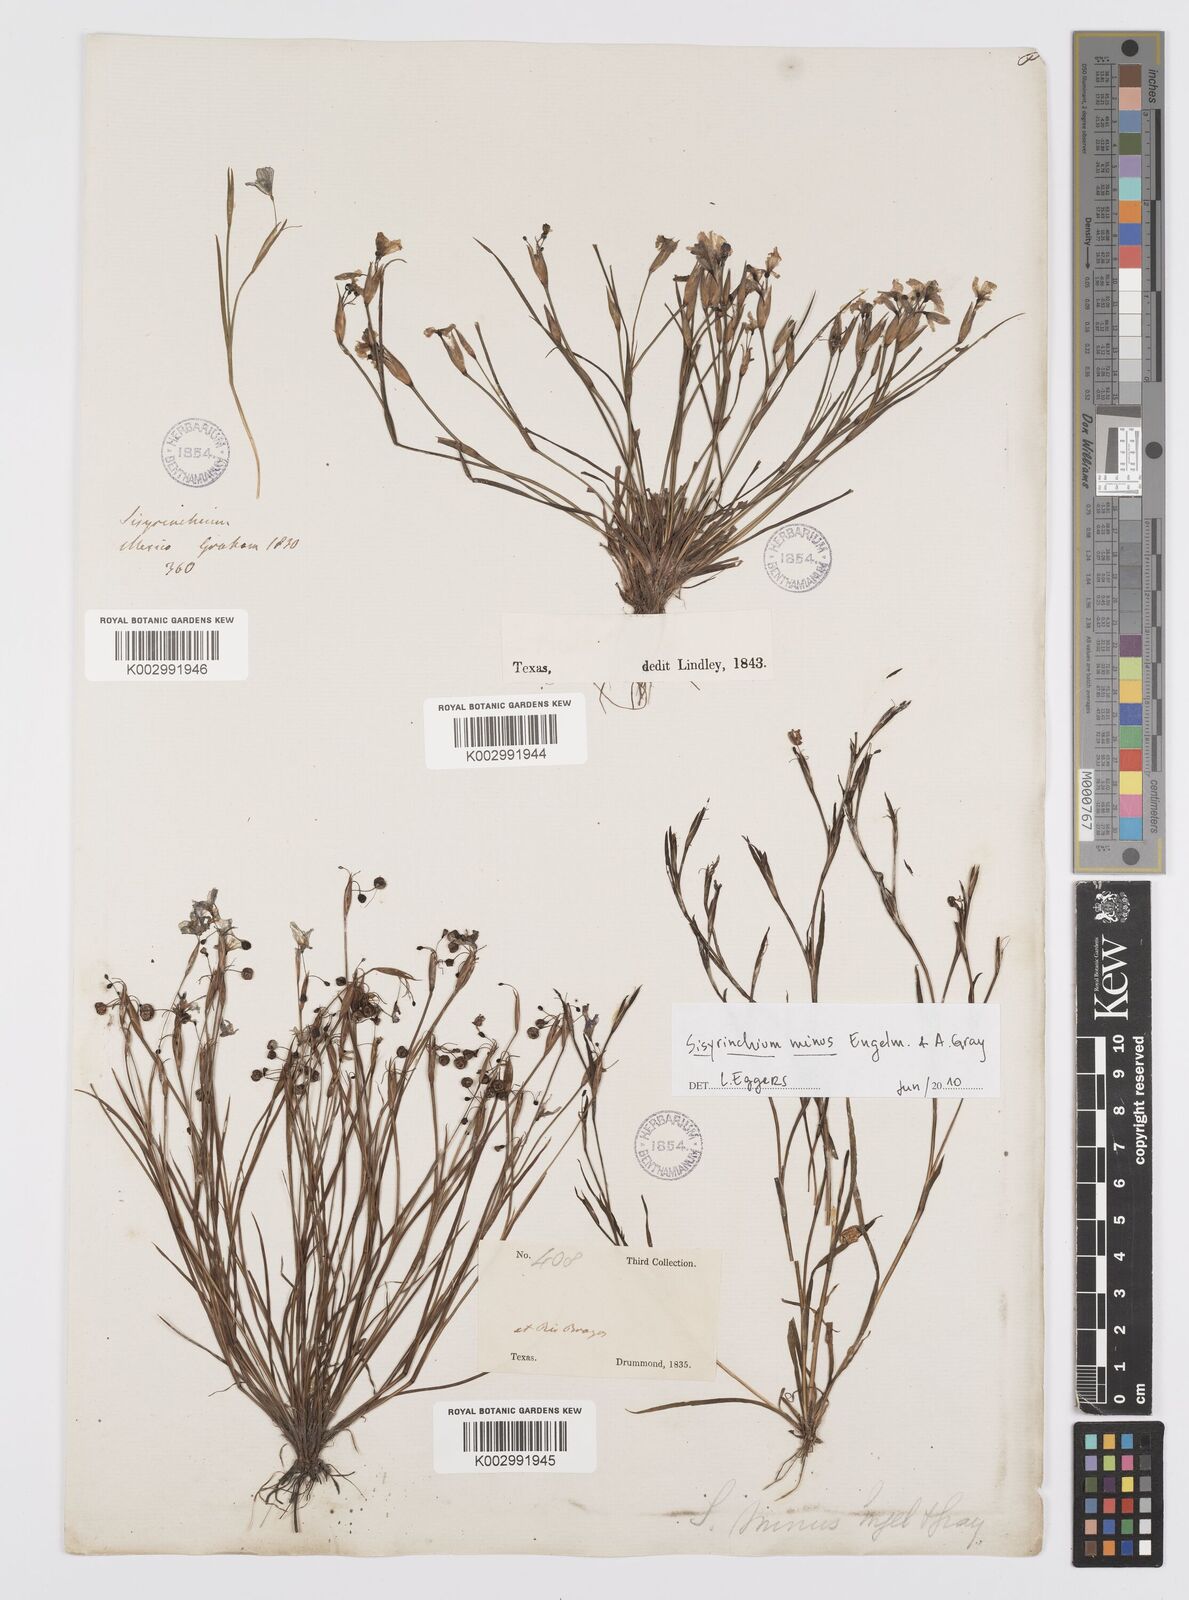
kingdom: Plantae
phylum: Tracheophyta
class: Liliopsida
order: Asparagales
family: Iridaceae
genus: Sisyrinchium
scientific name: Sisyrinchium minus
